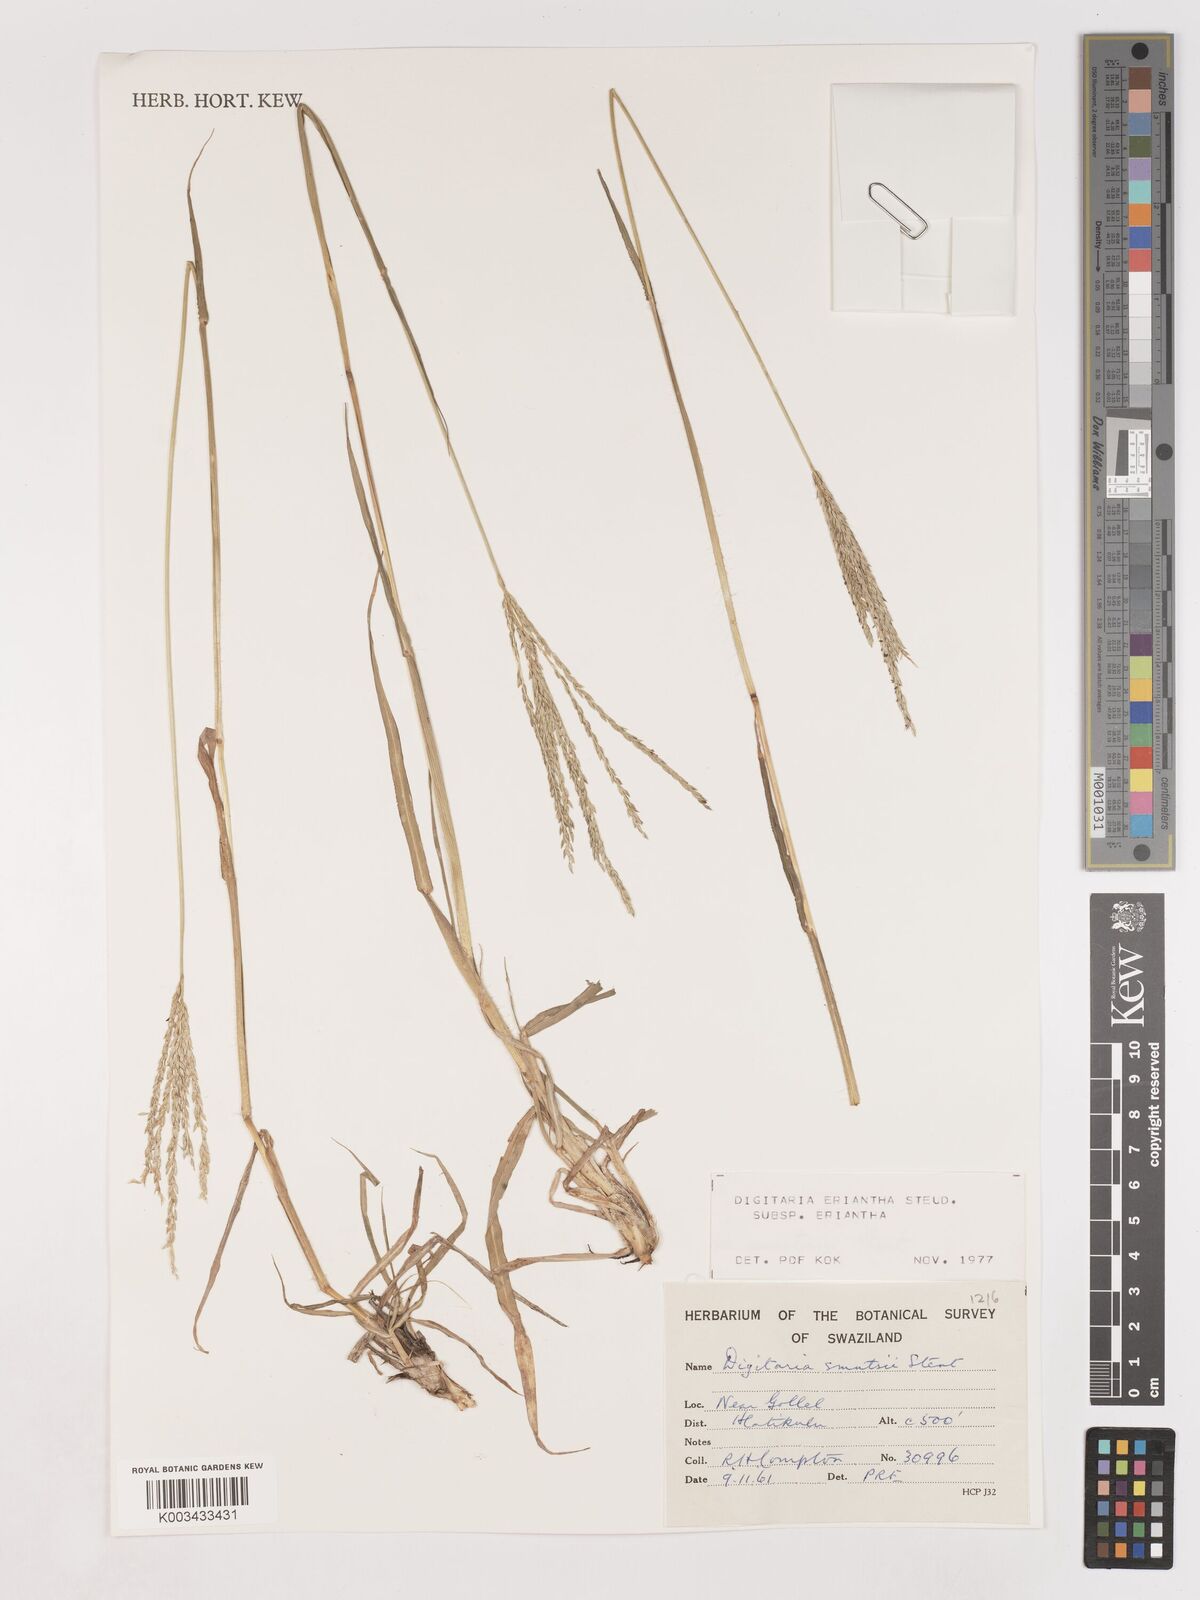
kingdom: Plantae
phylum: Tracheophyta
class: Liliopsida
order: Poales
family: Poaceae
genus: Digitaria
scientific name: Digitaria eriantha
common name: Digitgrass
